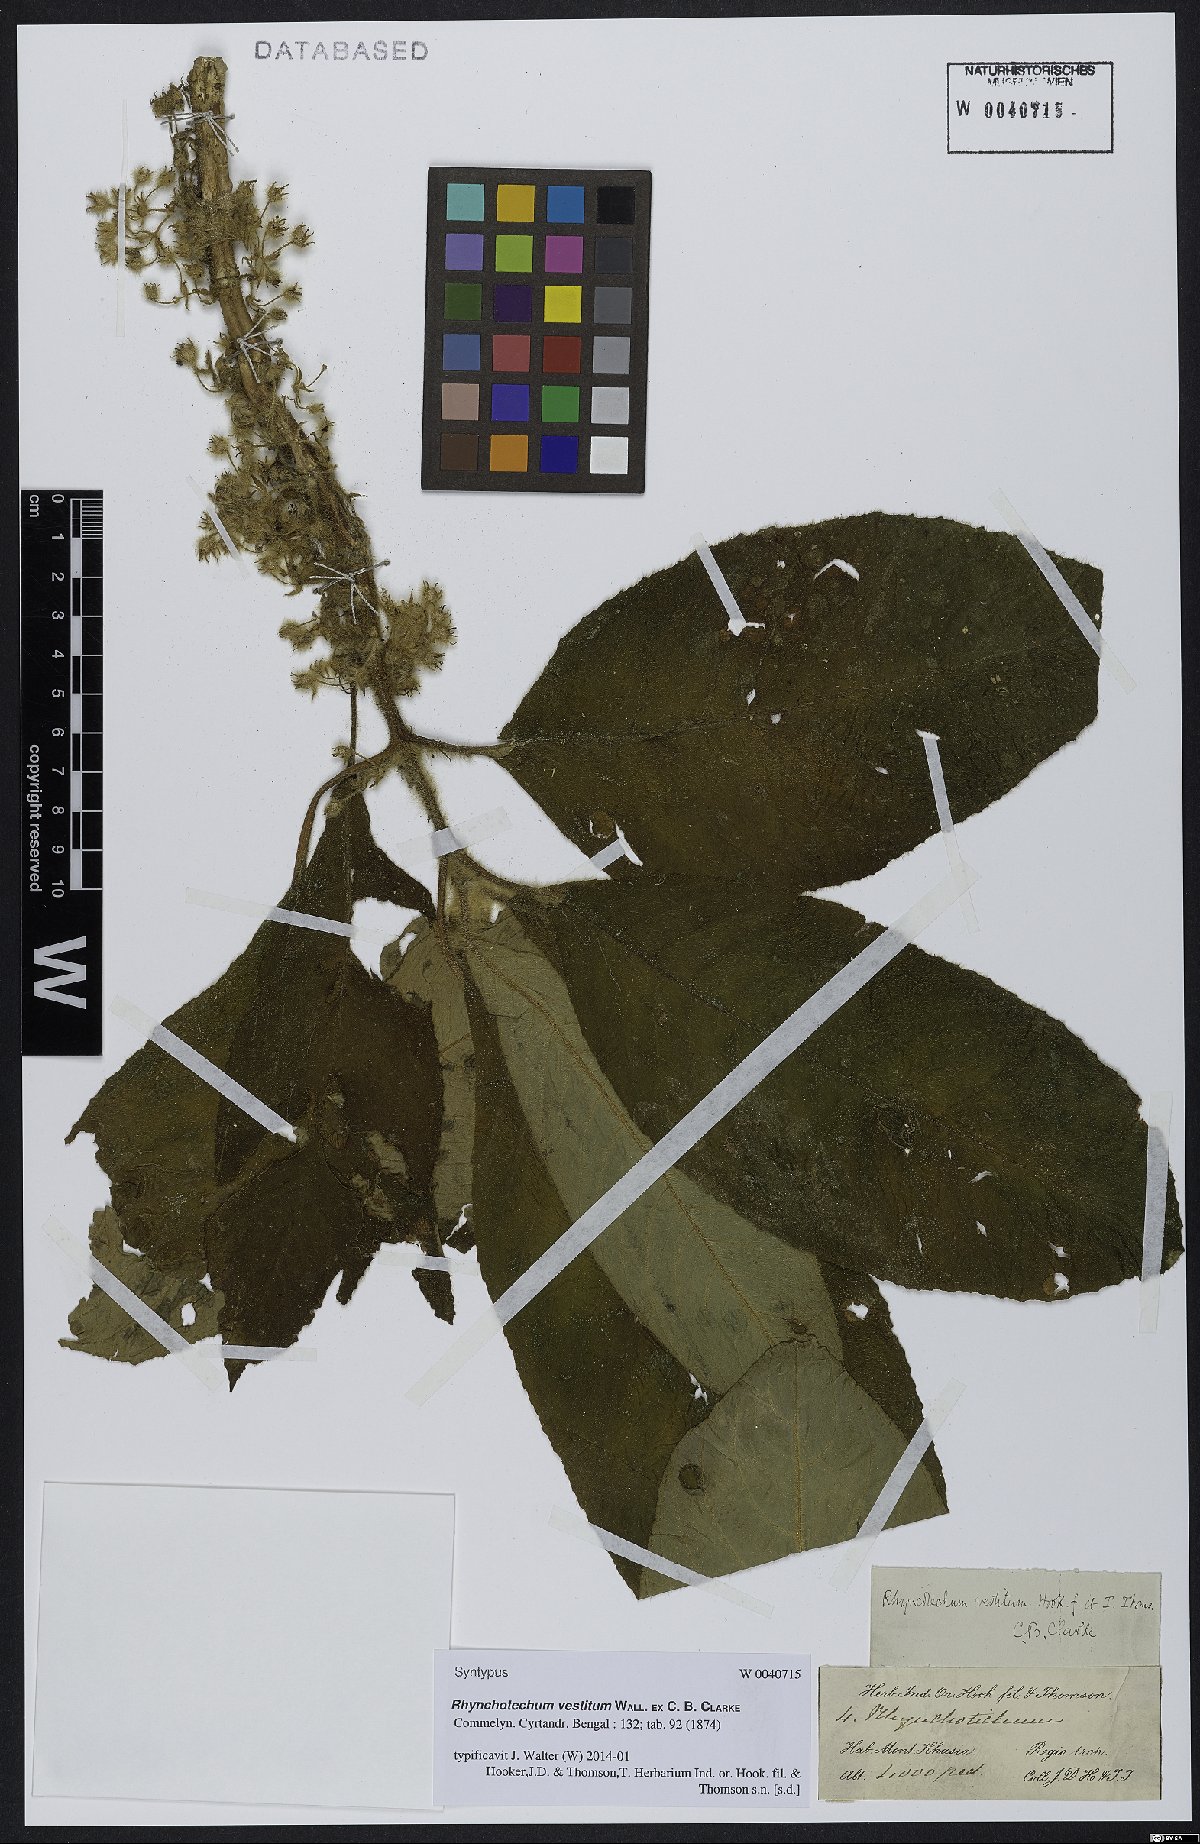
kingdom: Plantae
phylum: Tracheophyta
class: Magnoliopsida
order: Lamiales
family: Gesneriaceae
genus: Rhynchotechum
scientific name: Rhynchotechum vestitum
